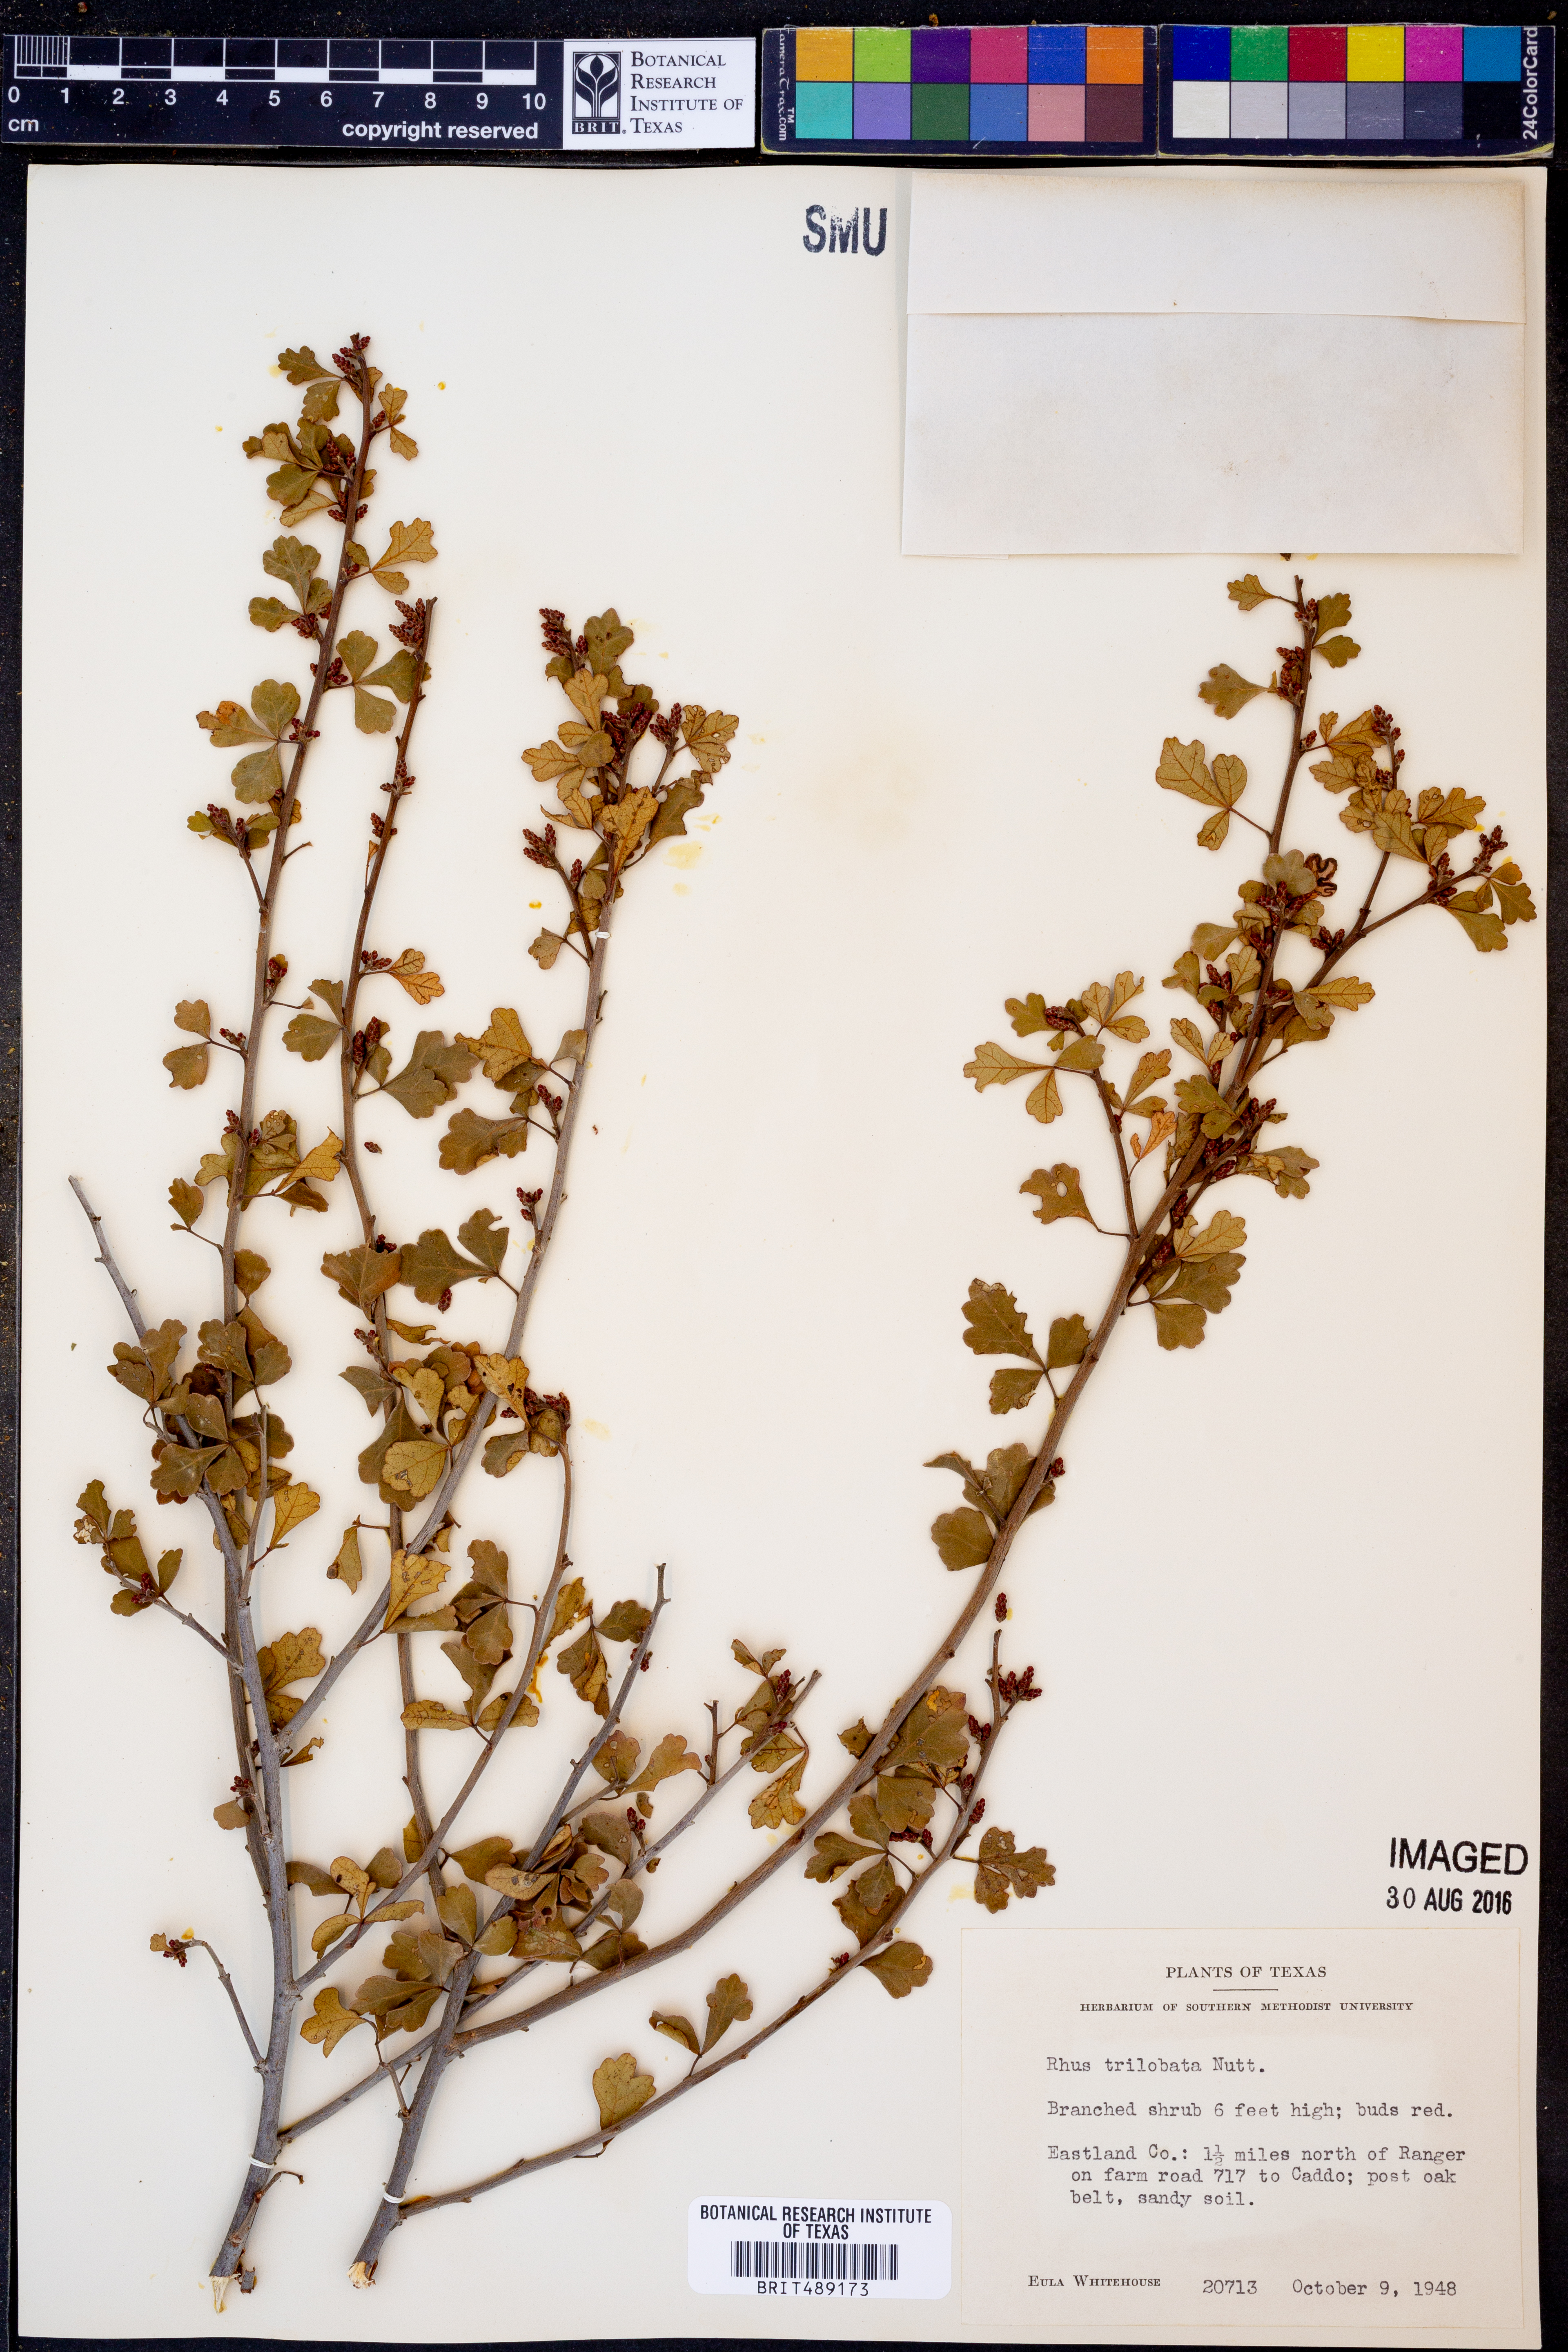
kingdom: Plantae
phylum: Tracheophyta
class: Magnoliopsida
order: Sapindales
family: Anacardiaceae
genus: Rhus
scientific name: Rhus trilobata
